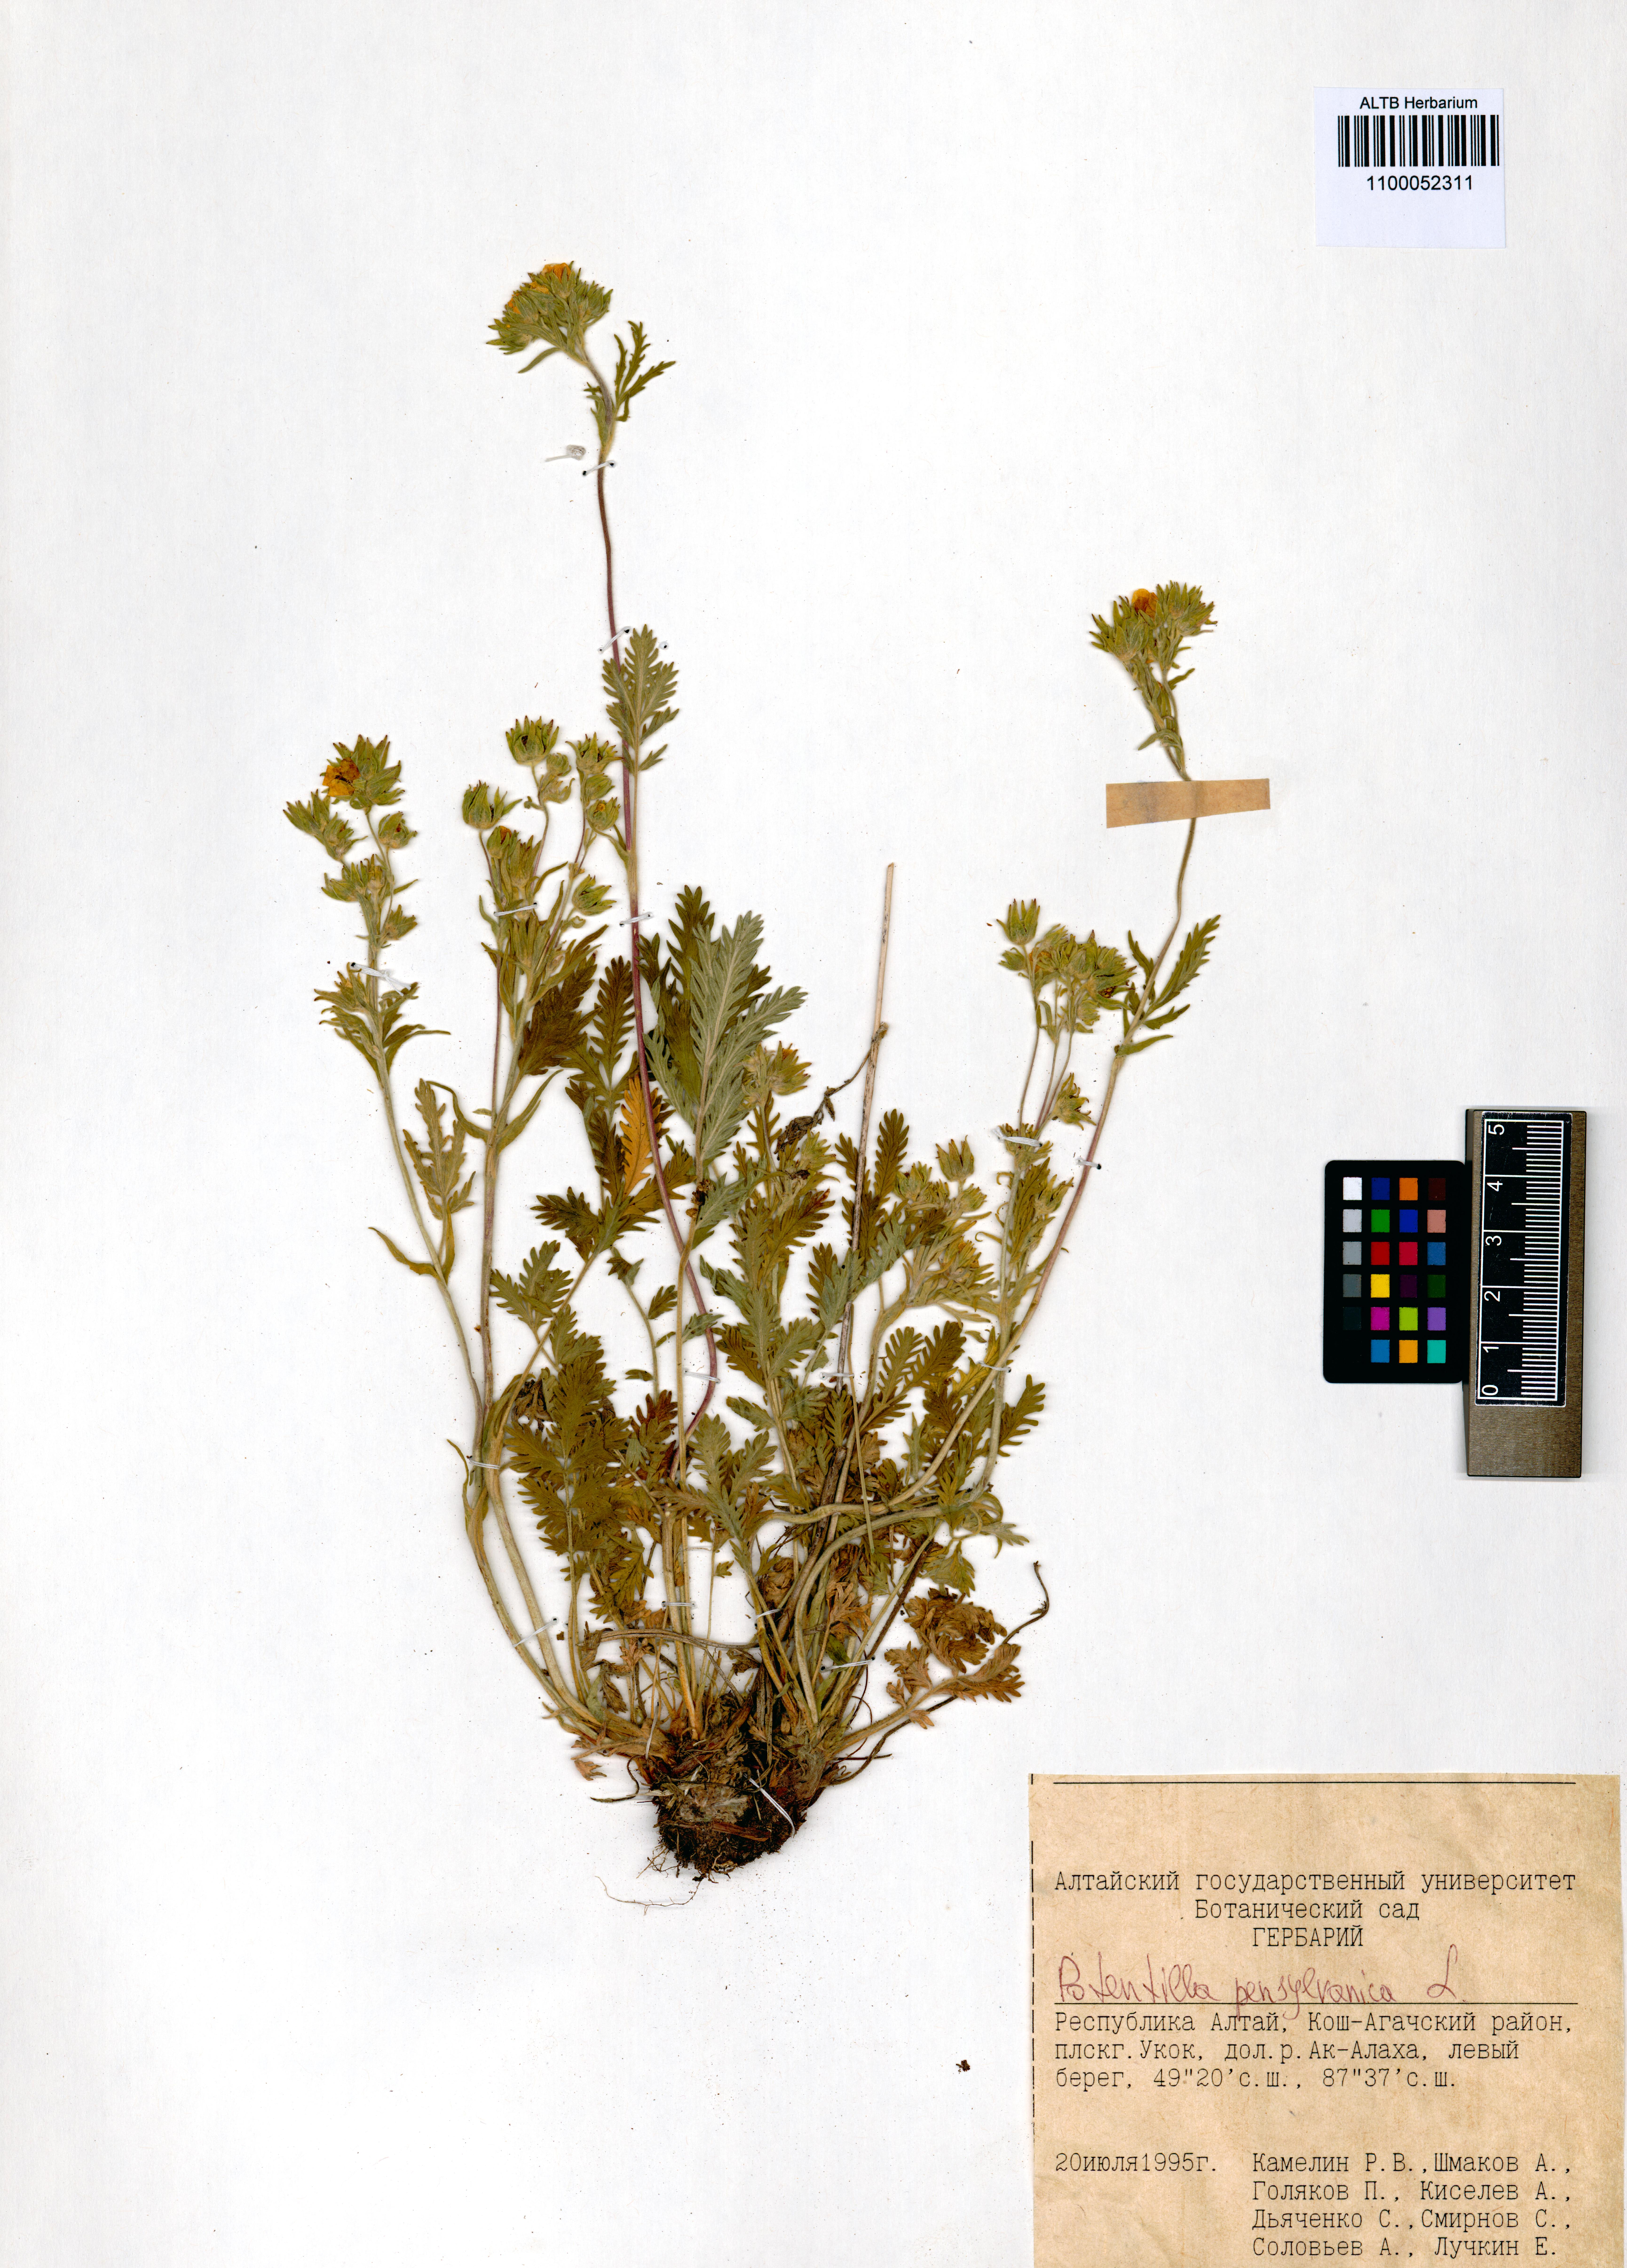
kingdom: Plantae
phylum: Tracheophyta
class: Magnoliopsida
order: Rosales
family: Rosaceae
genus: Potentilla
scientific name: Potentilla pensylvanica
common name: Pennsylvania cinquefoil
